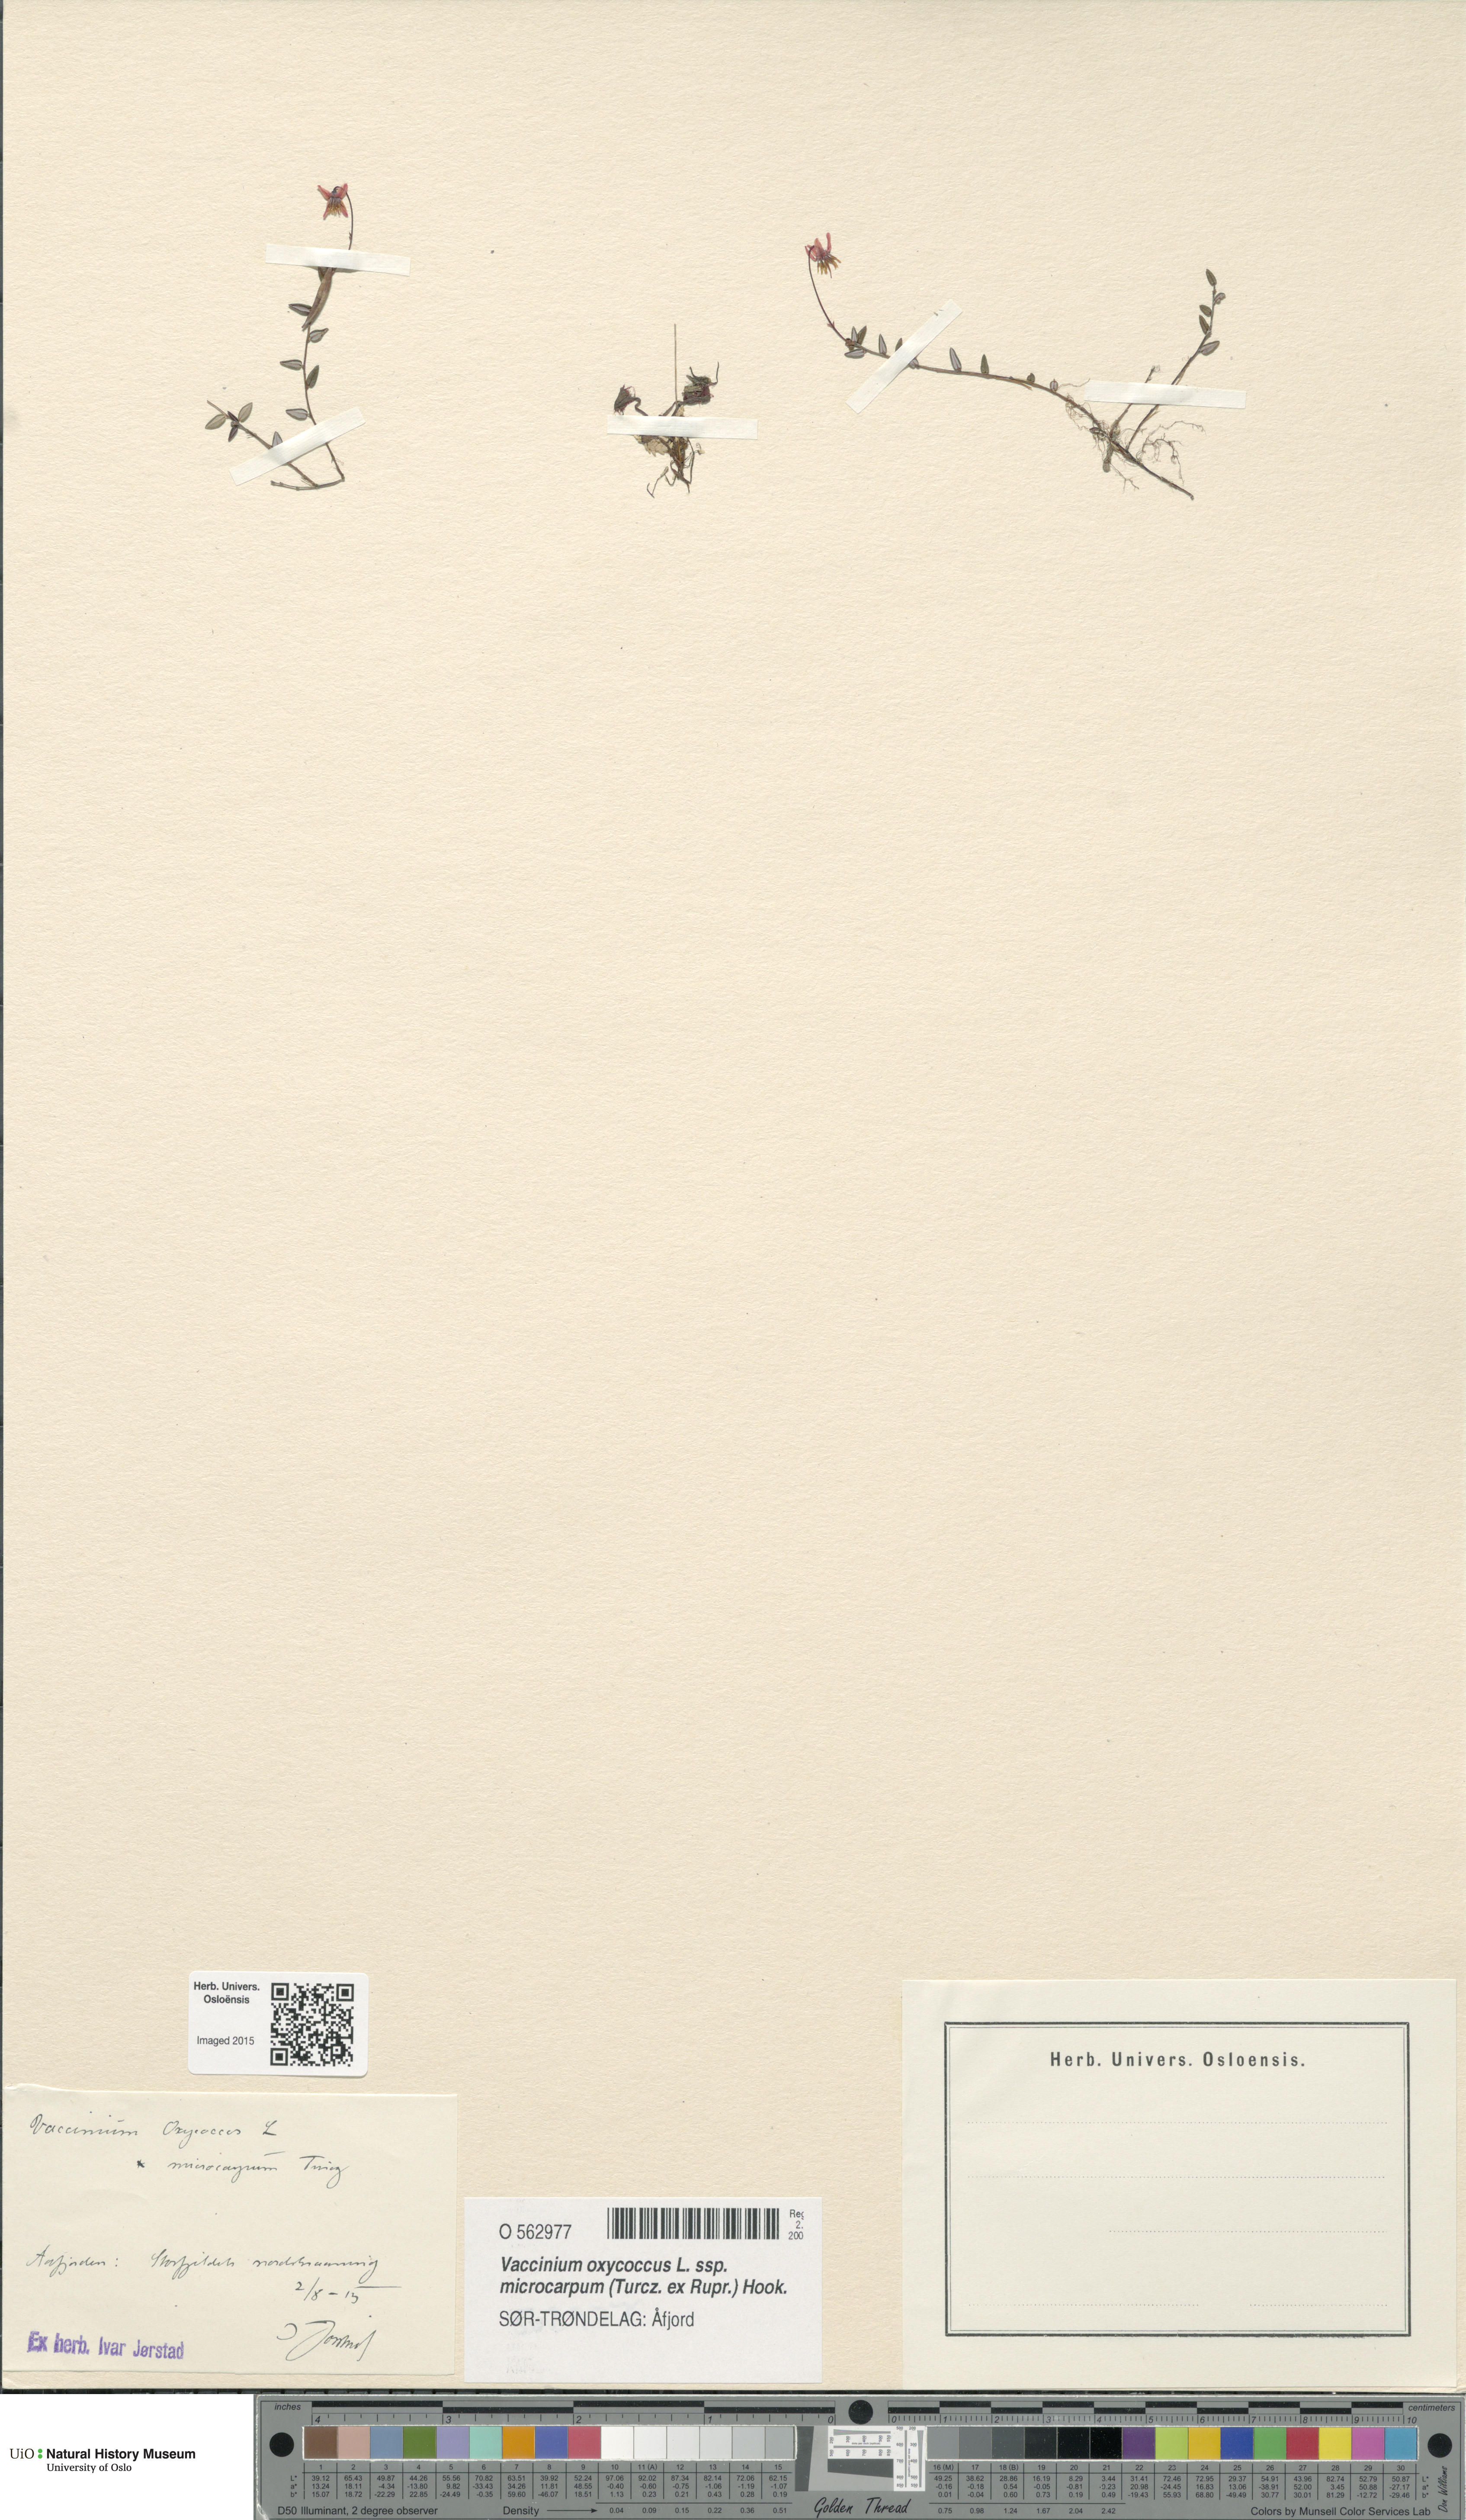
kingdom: Plantae
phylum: Tracheophyta
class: Magnoliopsida
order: Ericales
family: Ericaceae
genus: Vaccinium
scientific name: Vaccinium microcarpum
